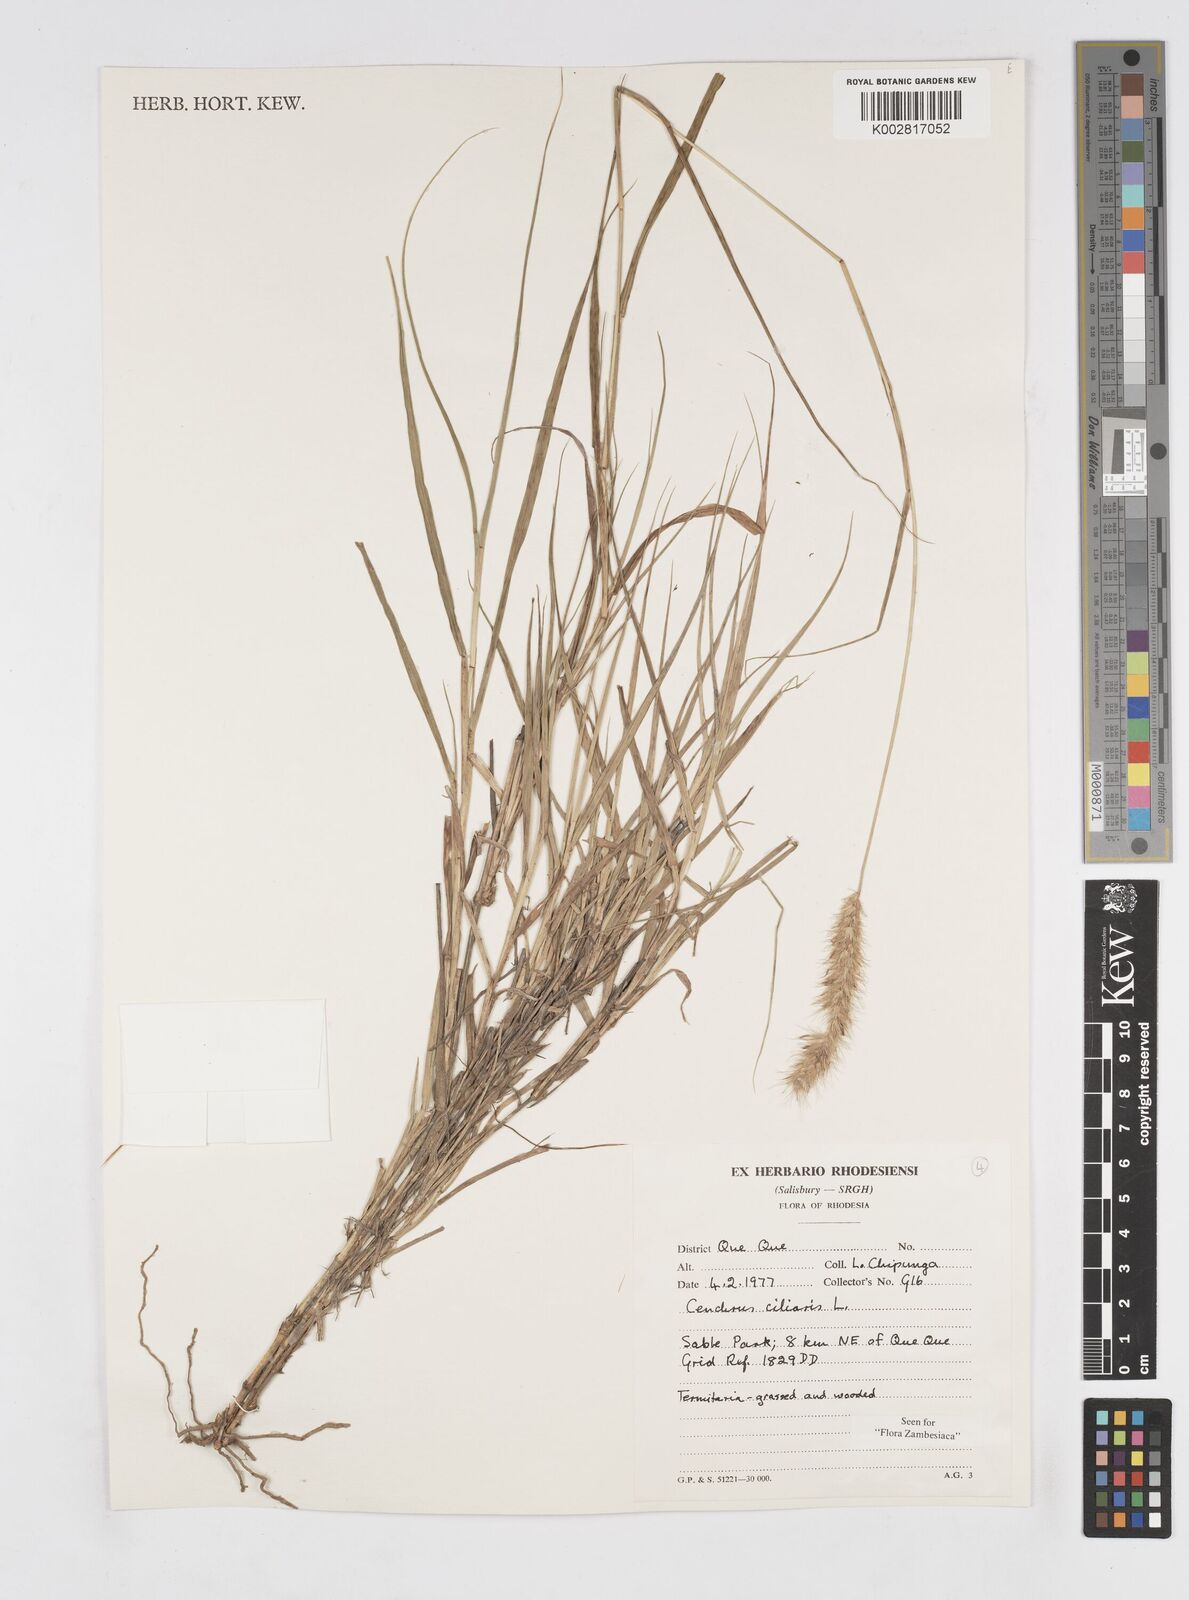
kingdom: Plantae
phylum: Tracheophyta
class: Liliopsida
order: Poales
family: Poaceae
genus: Cenchrus
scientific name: Cenchrus ciliaris
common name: Buffelgrass
